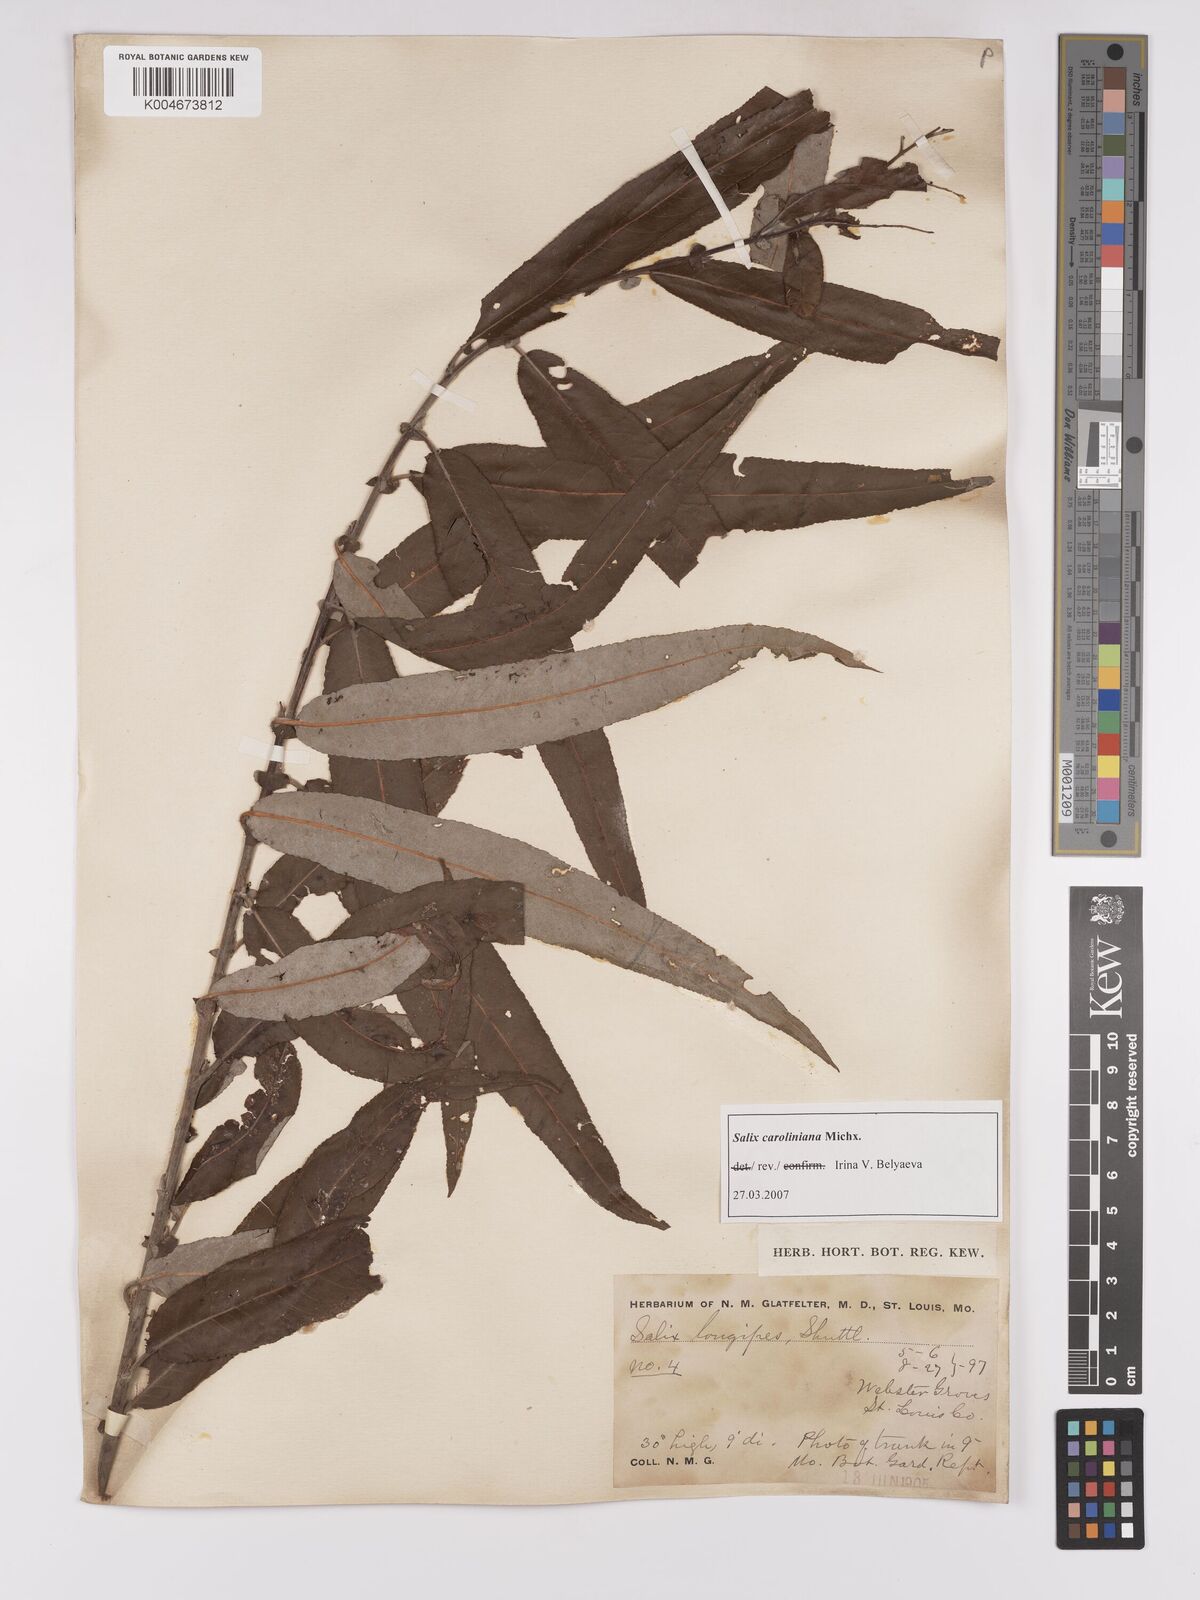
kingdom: Plantae
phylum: Tracheophyta
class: Magnoliopsida
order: Malpighiales
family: Salicaceae
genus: Salix
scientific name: Salix caroliniana
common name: Carolina willow
